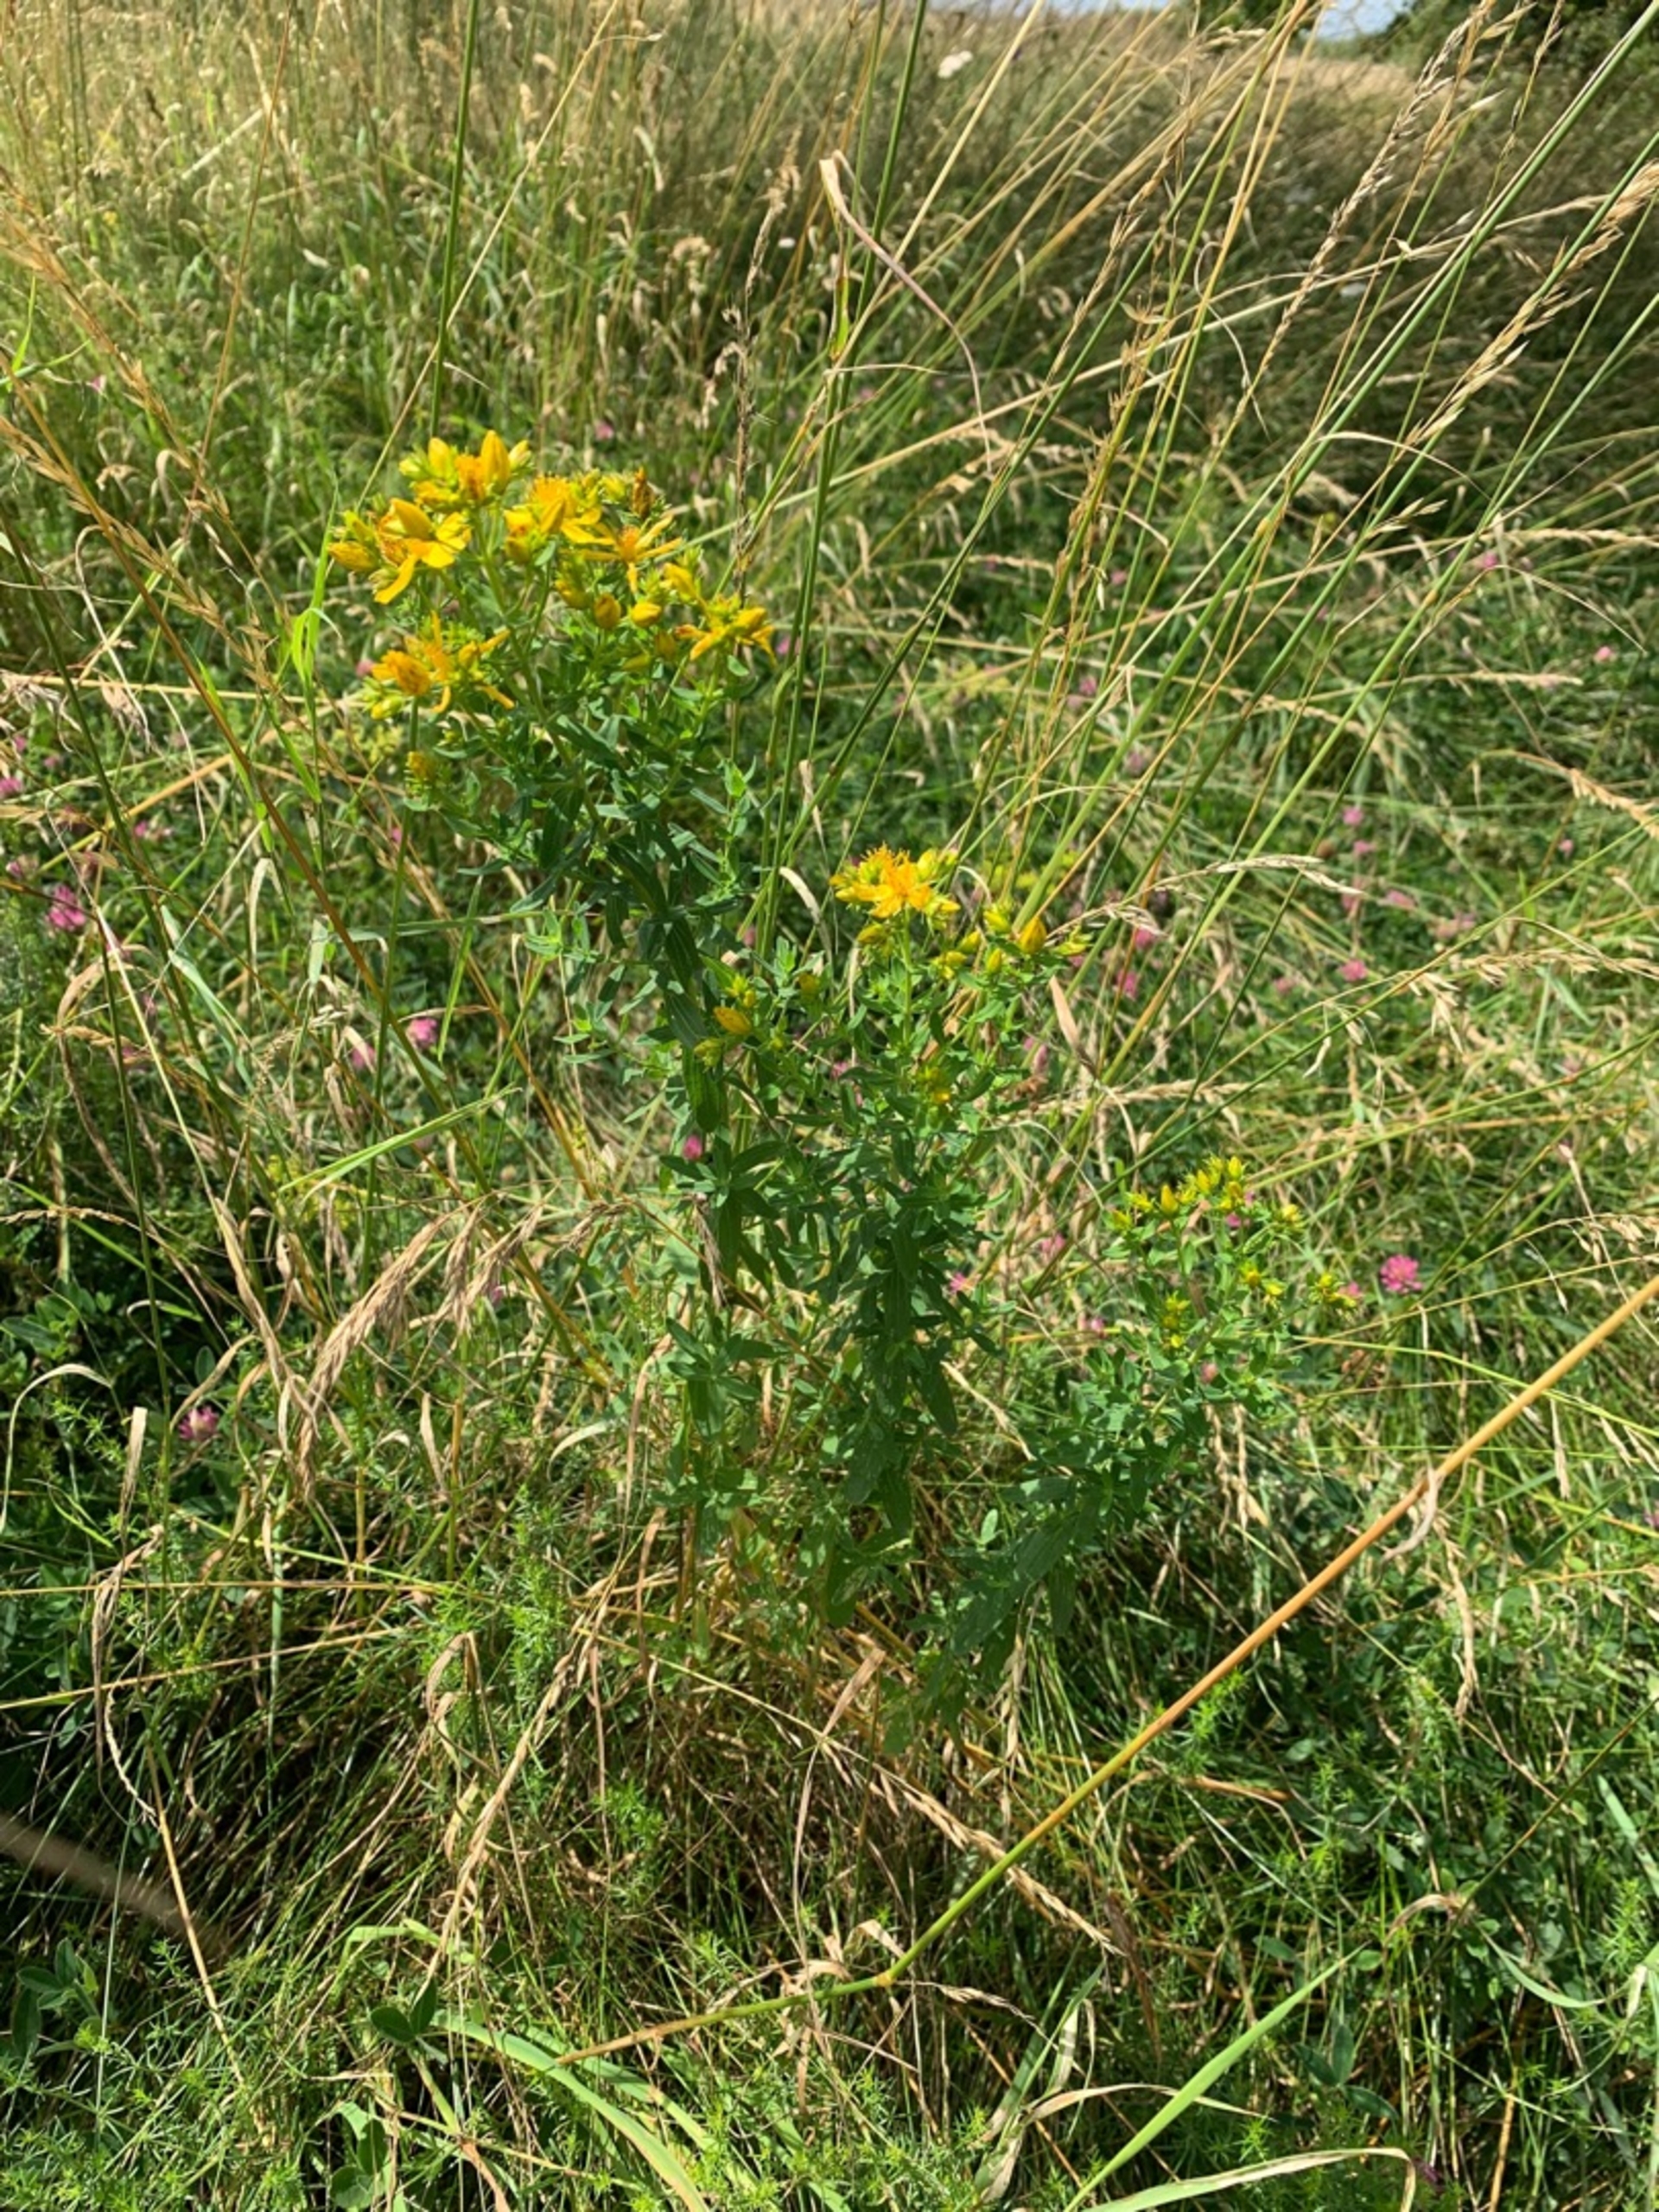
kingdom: Plantae
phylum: Tracheophyta
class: Magnoliopsida
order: Malpighiales
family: Hypericaceae
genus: Hypericum
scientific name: Hypericum perforatum
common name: Prikbladet perikon
